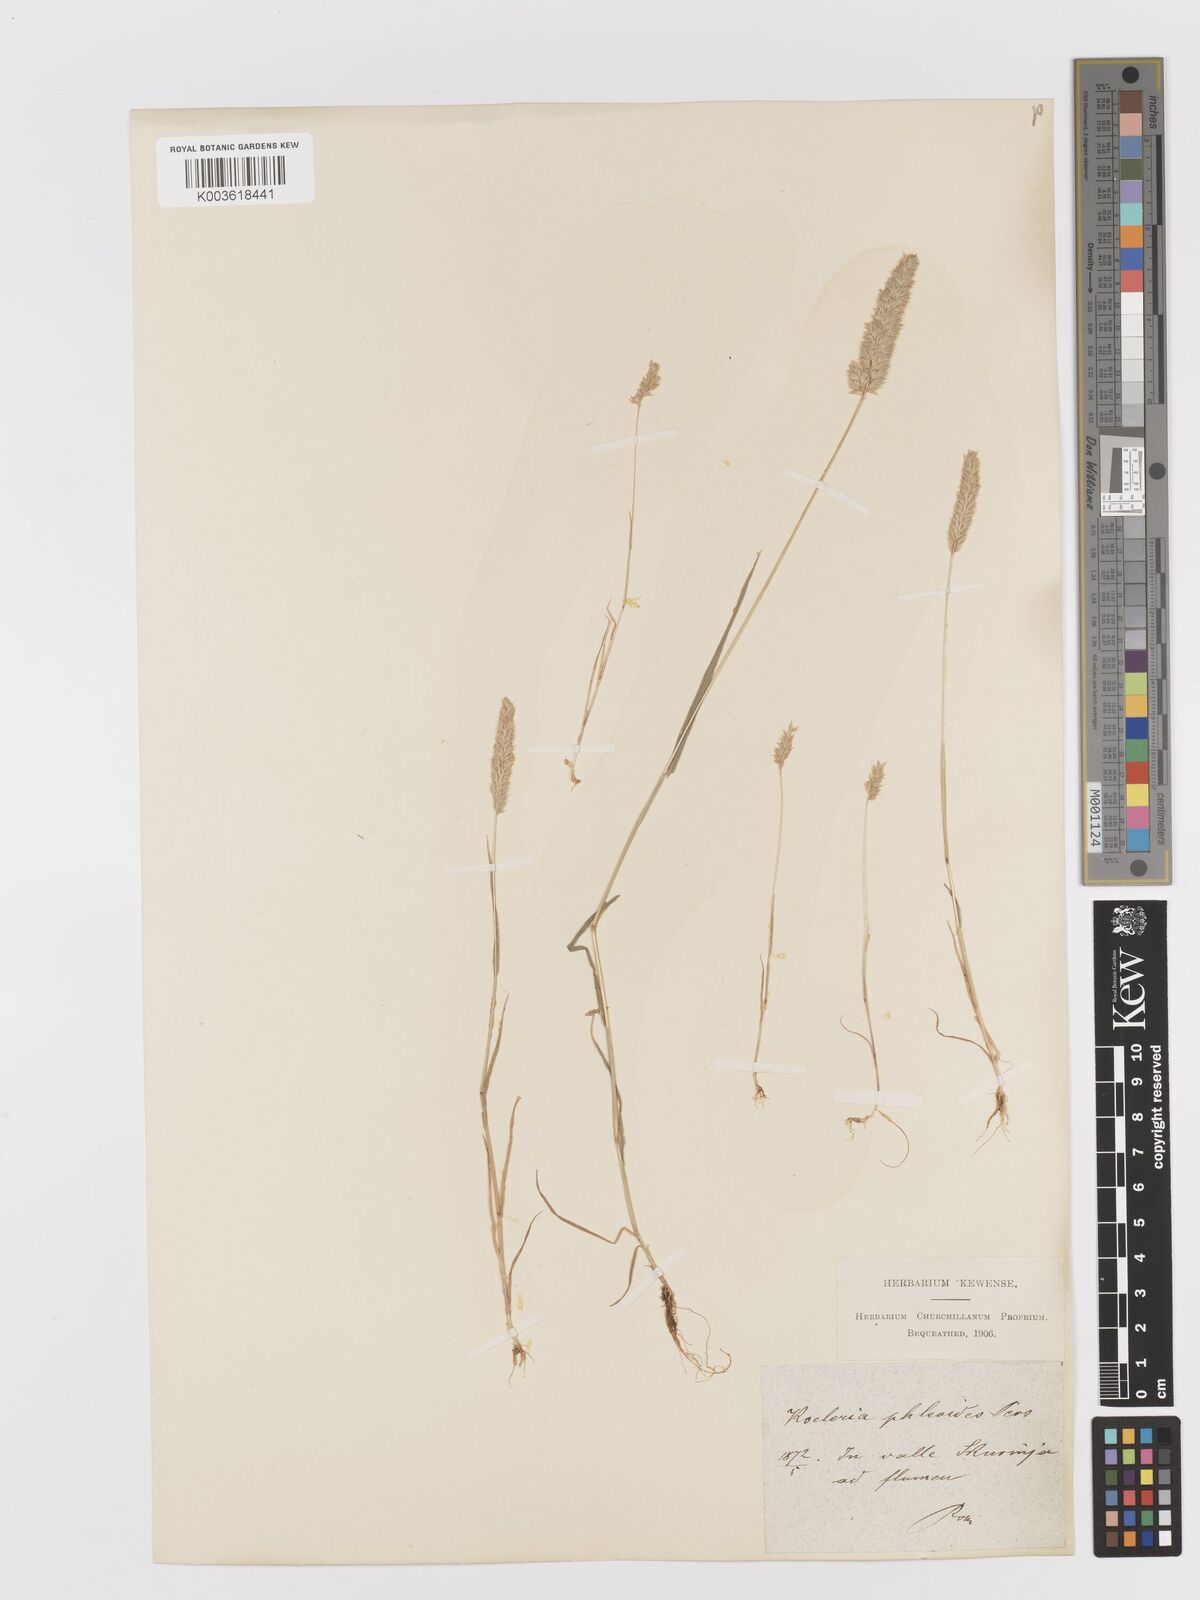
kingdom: Plantae
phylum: Tracheophyta
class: Liliopsida
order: Poales
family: Poaceae
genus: Rostraria
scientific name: Rostraria cristata
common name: Mediterranean hair-grass
